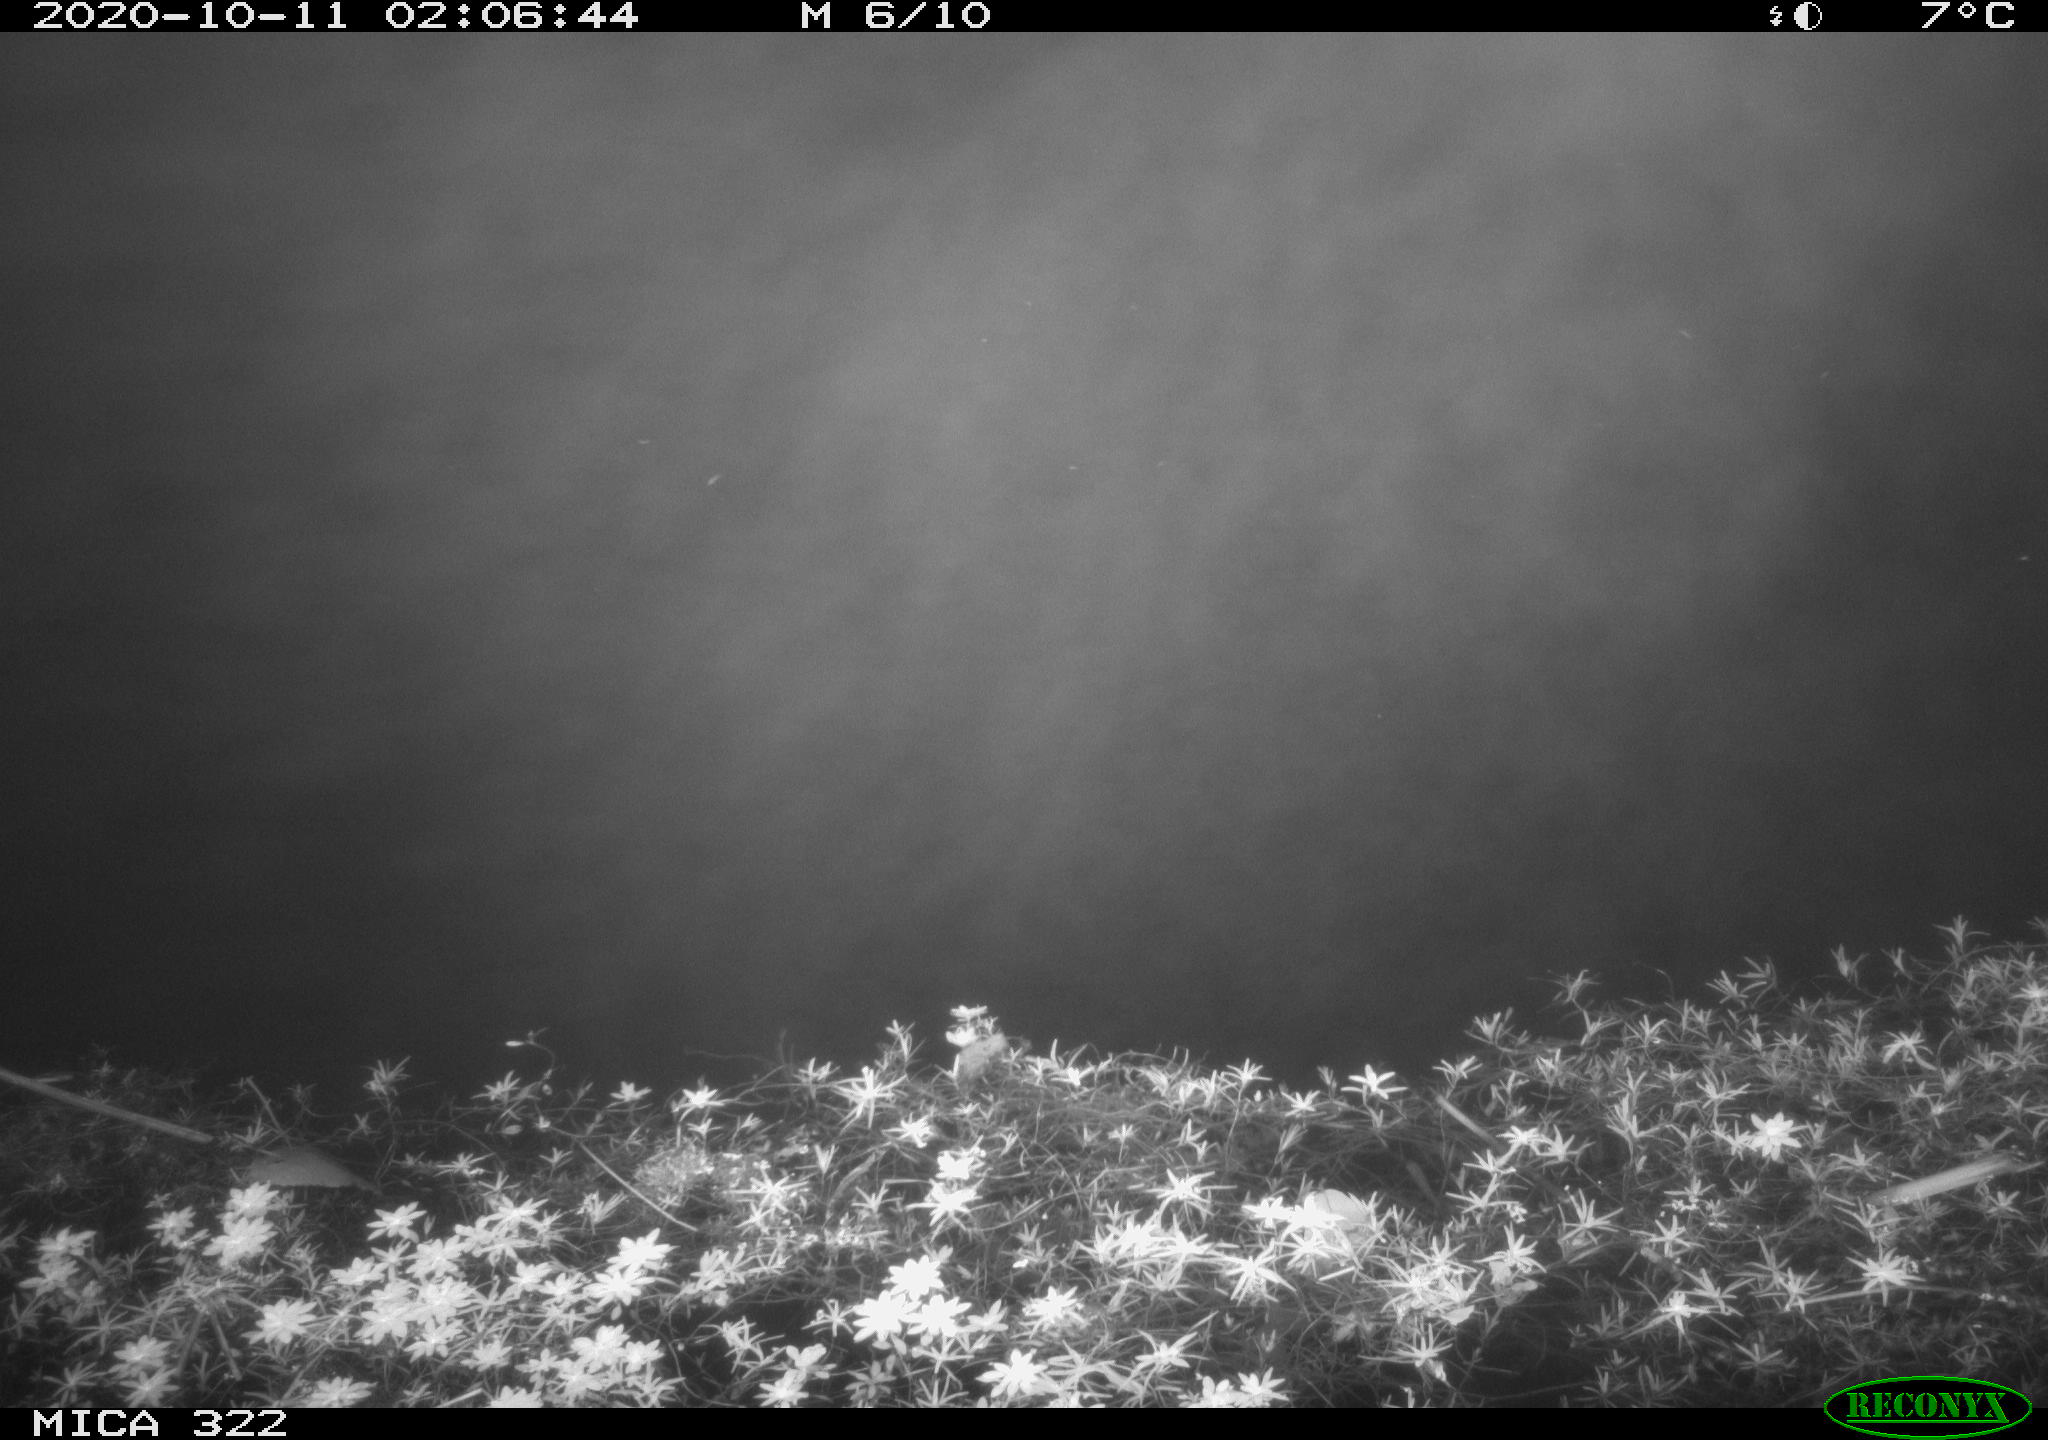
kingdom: Animalia
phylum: Chordata
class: Mammalia
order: Rodentia
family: Muridae
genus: Rattus
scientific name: Rattus norvegicus
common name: Brown rat
